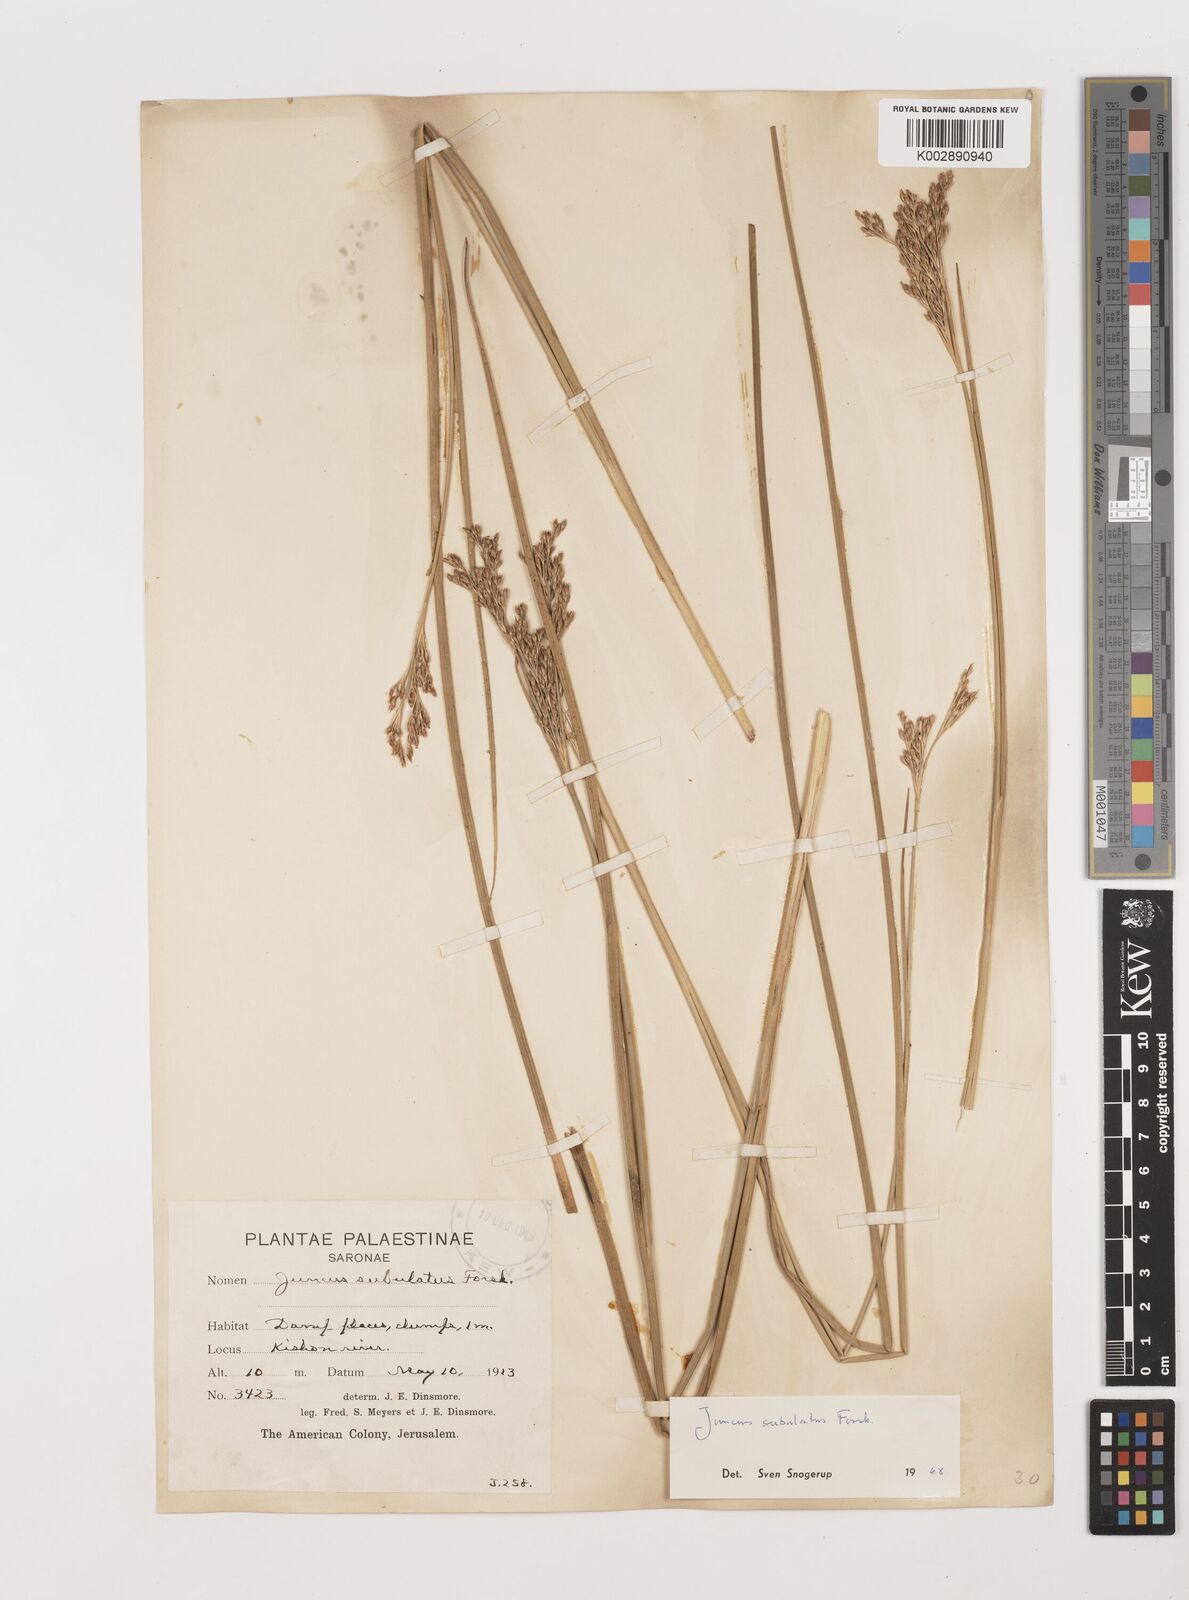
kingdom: Plantae
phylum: Tracheophyta
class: Liliopsida
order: Poales
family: Juncaceae
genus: Juncus
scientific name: Juncus subulatus
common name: Somerset rush
